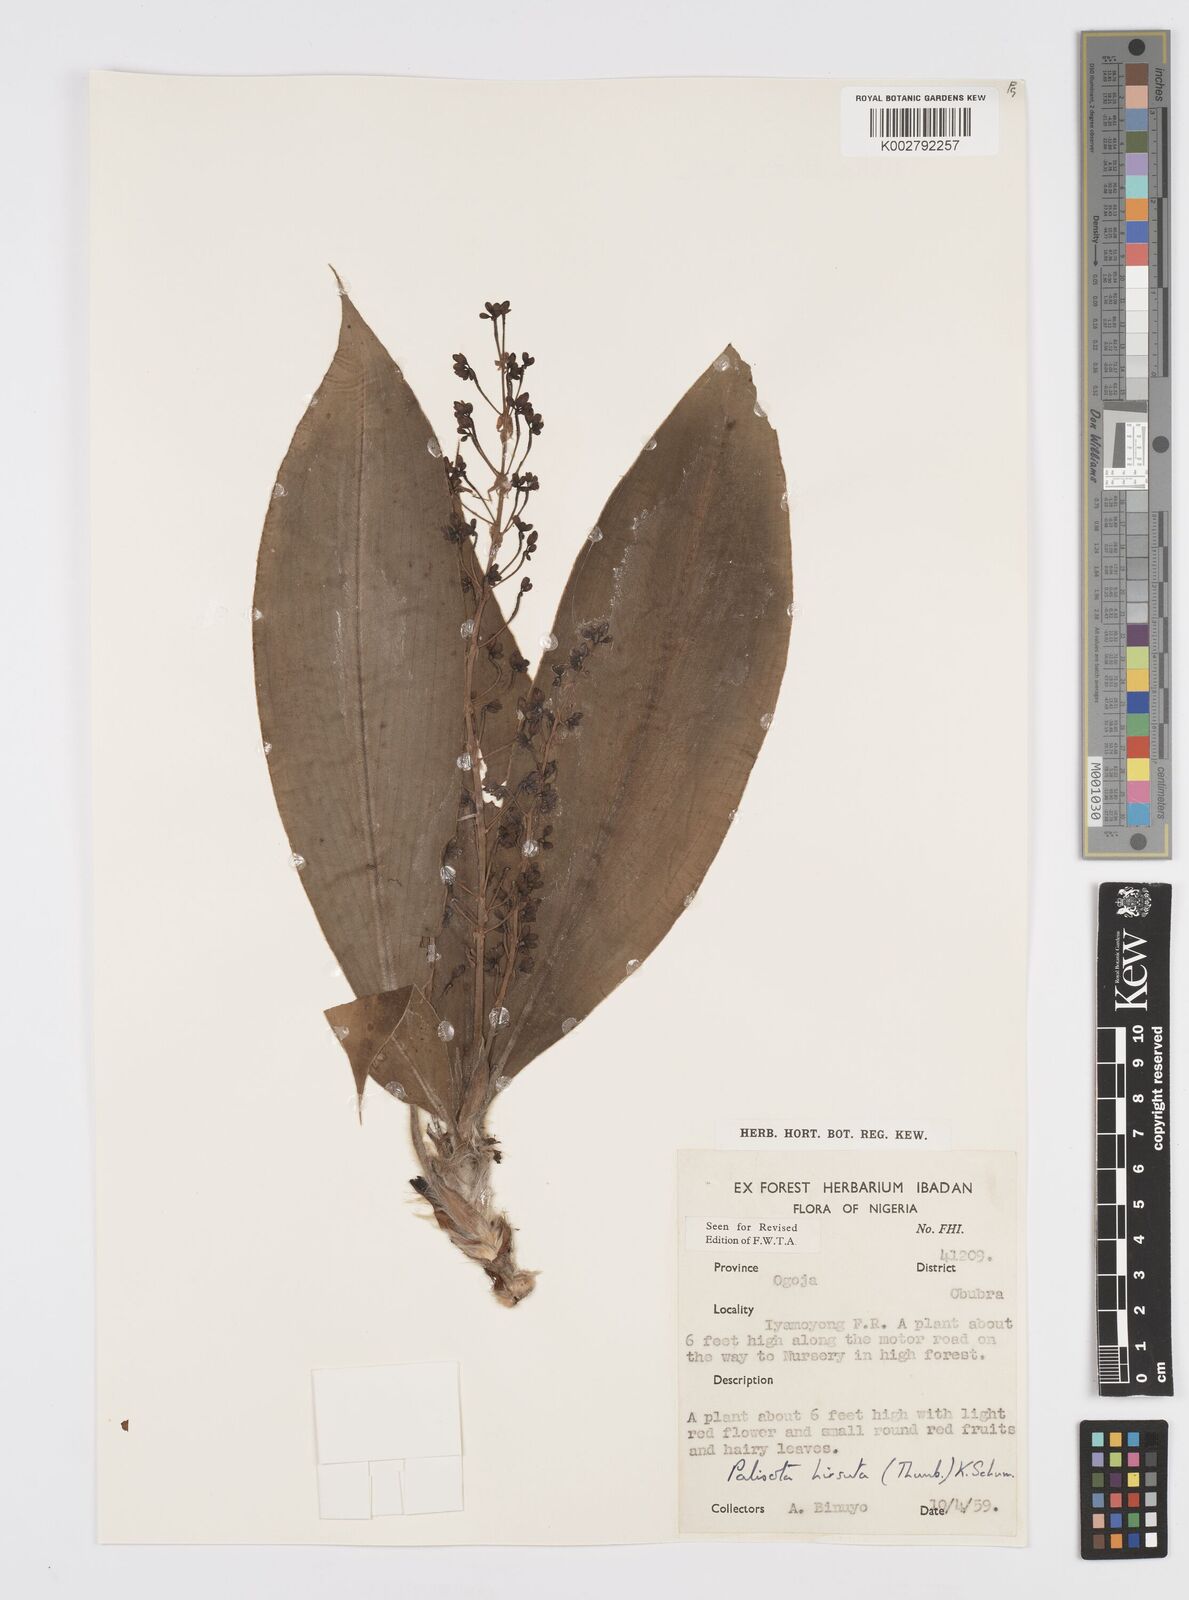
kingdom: Plantae
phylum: Tracheophyta
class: Liliopsida
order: Commelinales
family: Commelinaceae
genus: Palisota
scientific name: Palisota hirsuta
